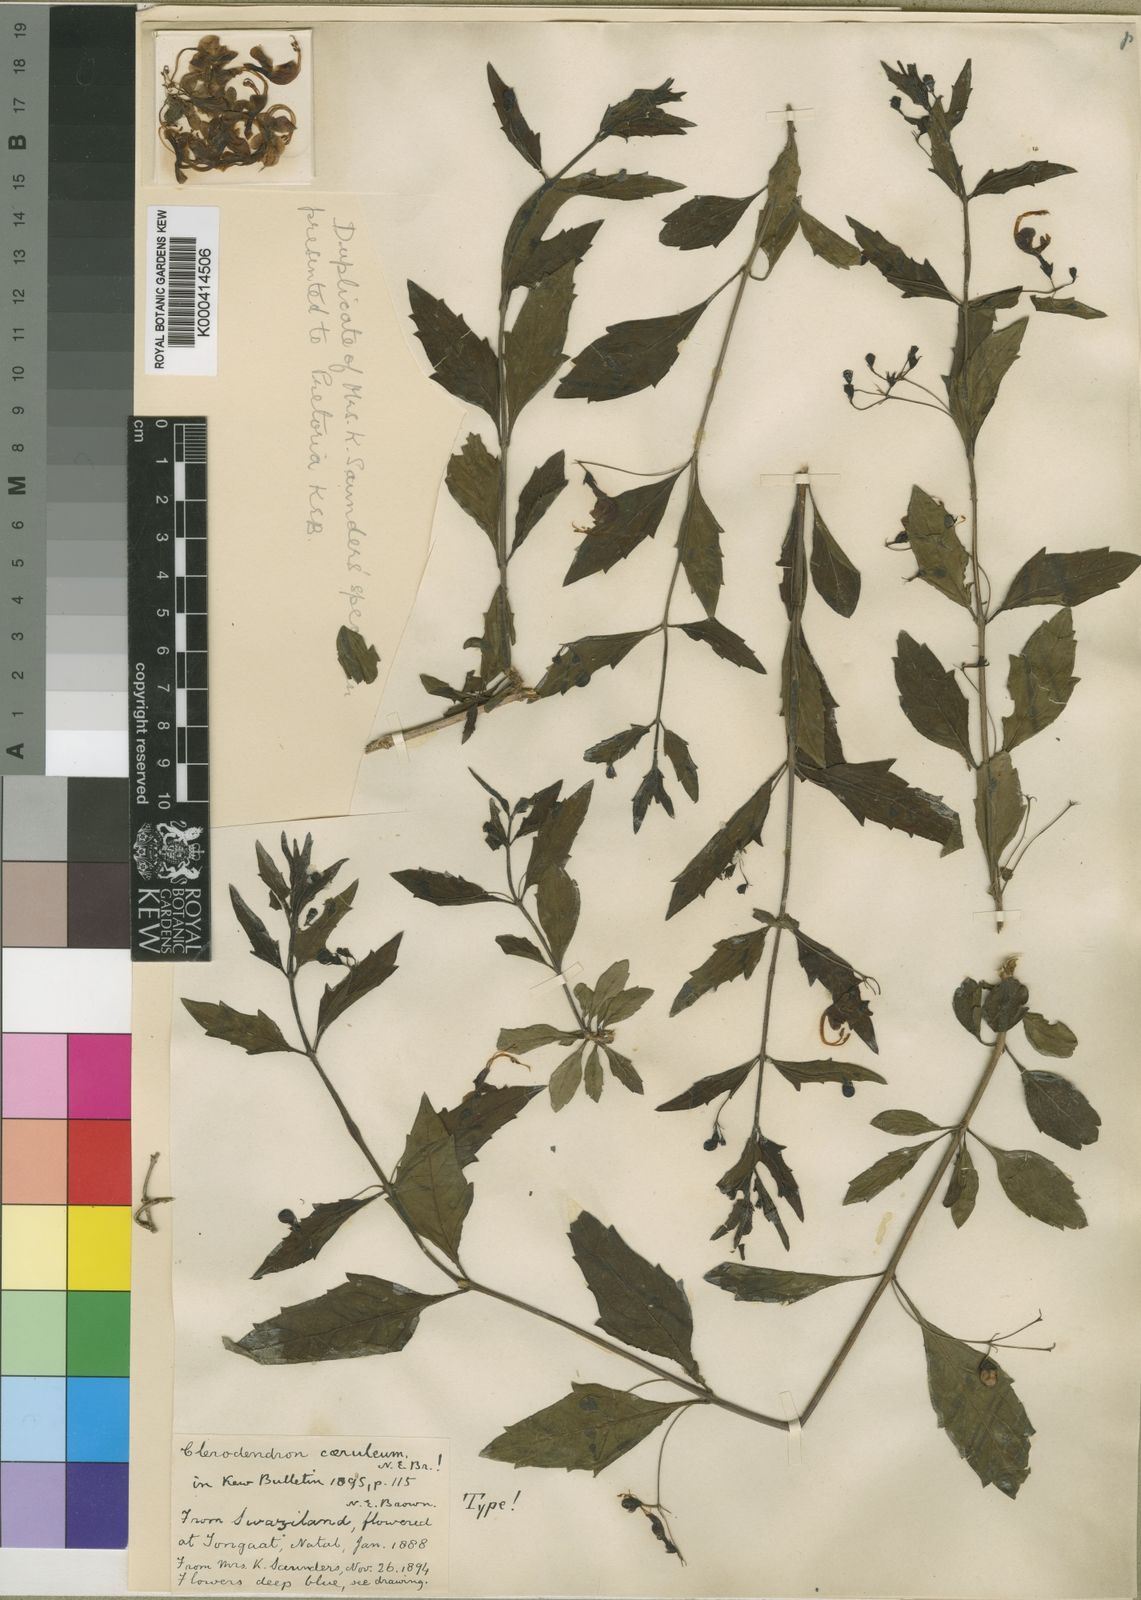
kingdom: Plantae
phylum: Tracheophyta
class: Magnoliopsida
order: Lamiales
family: Lamiaceae
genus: Clerodendrum
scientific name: Clerodendrum
